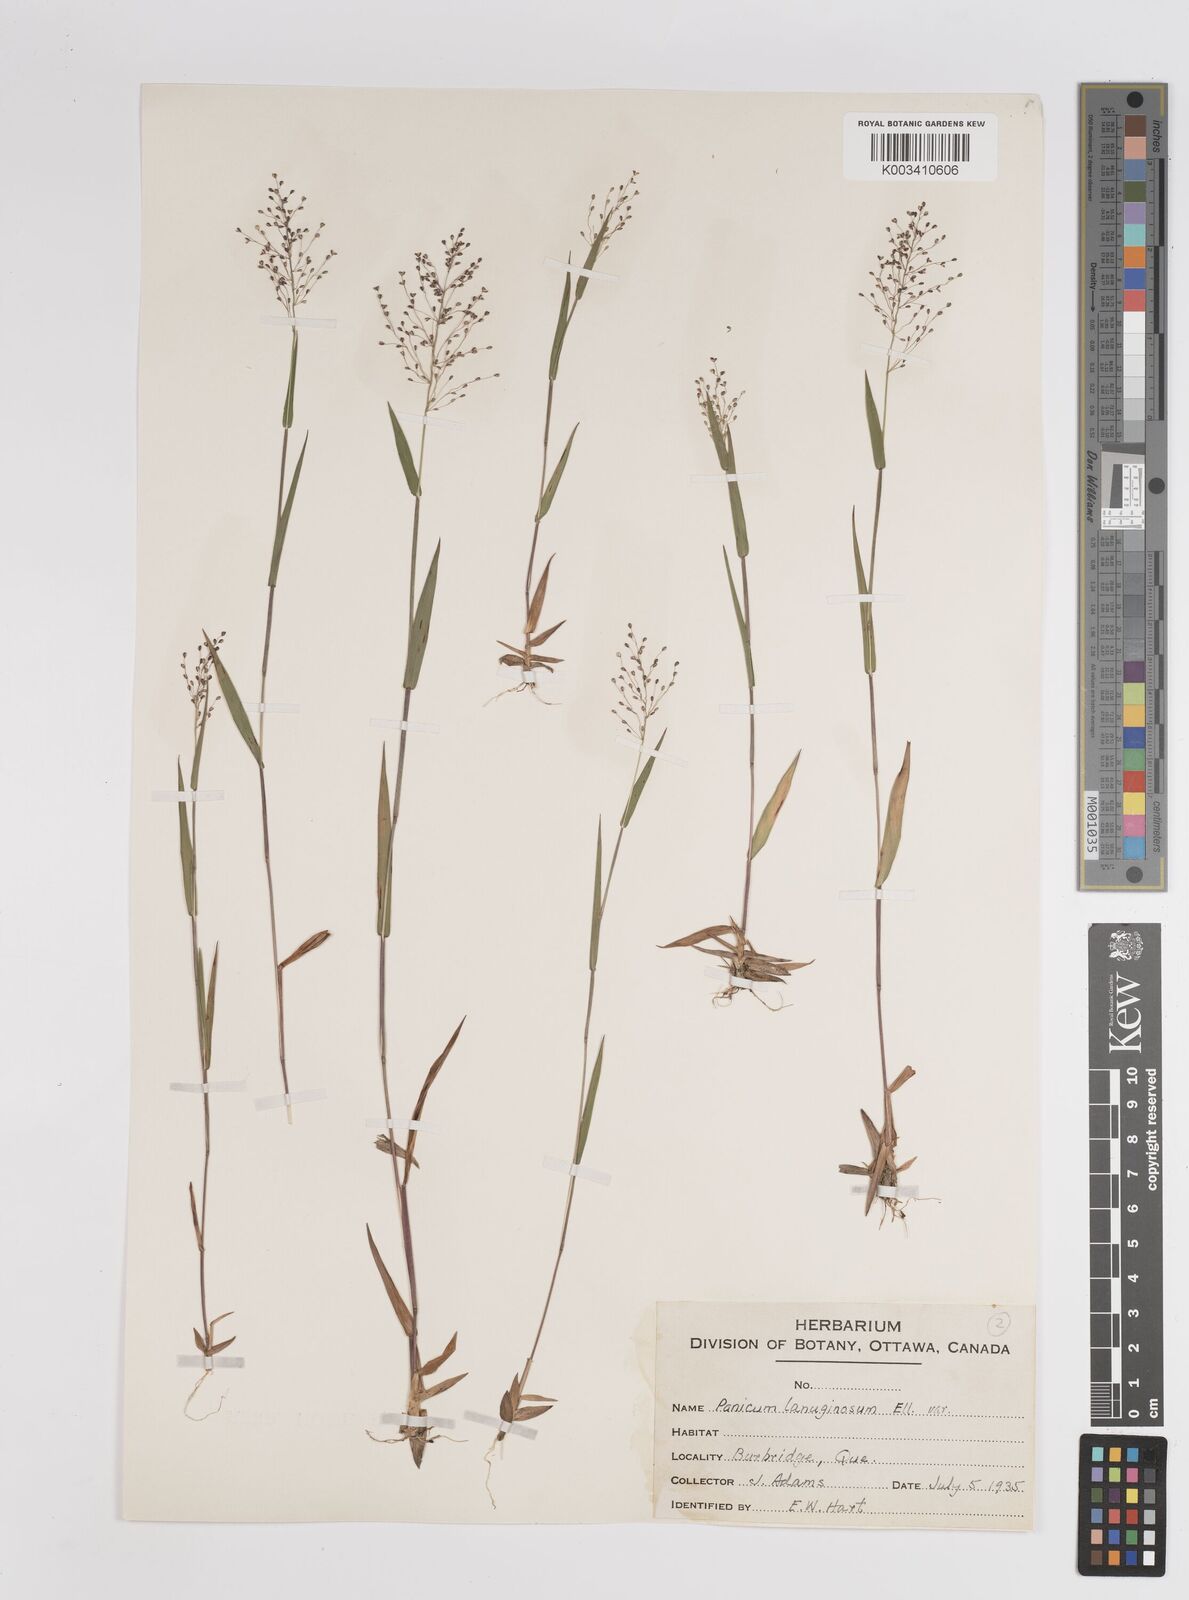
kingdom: Plantae
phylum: Tracheophyta
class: Liliopsida
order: Poales
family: Poaceae
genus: Dichanthelium
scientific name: Dichanthelium lanuginosum
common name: Woolly panicgrass
